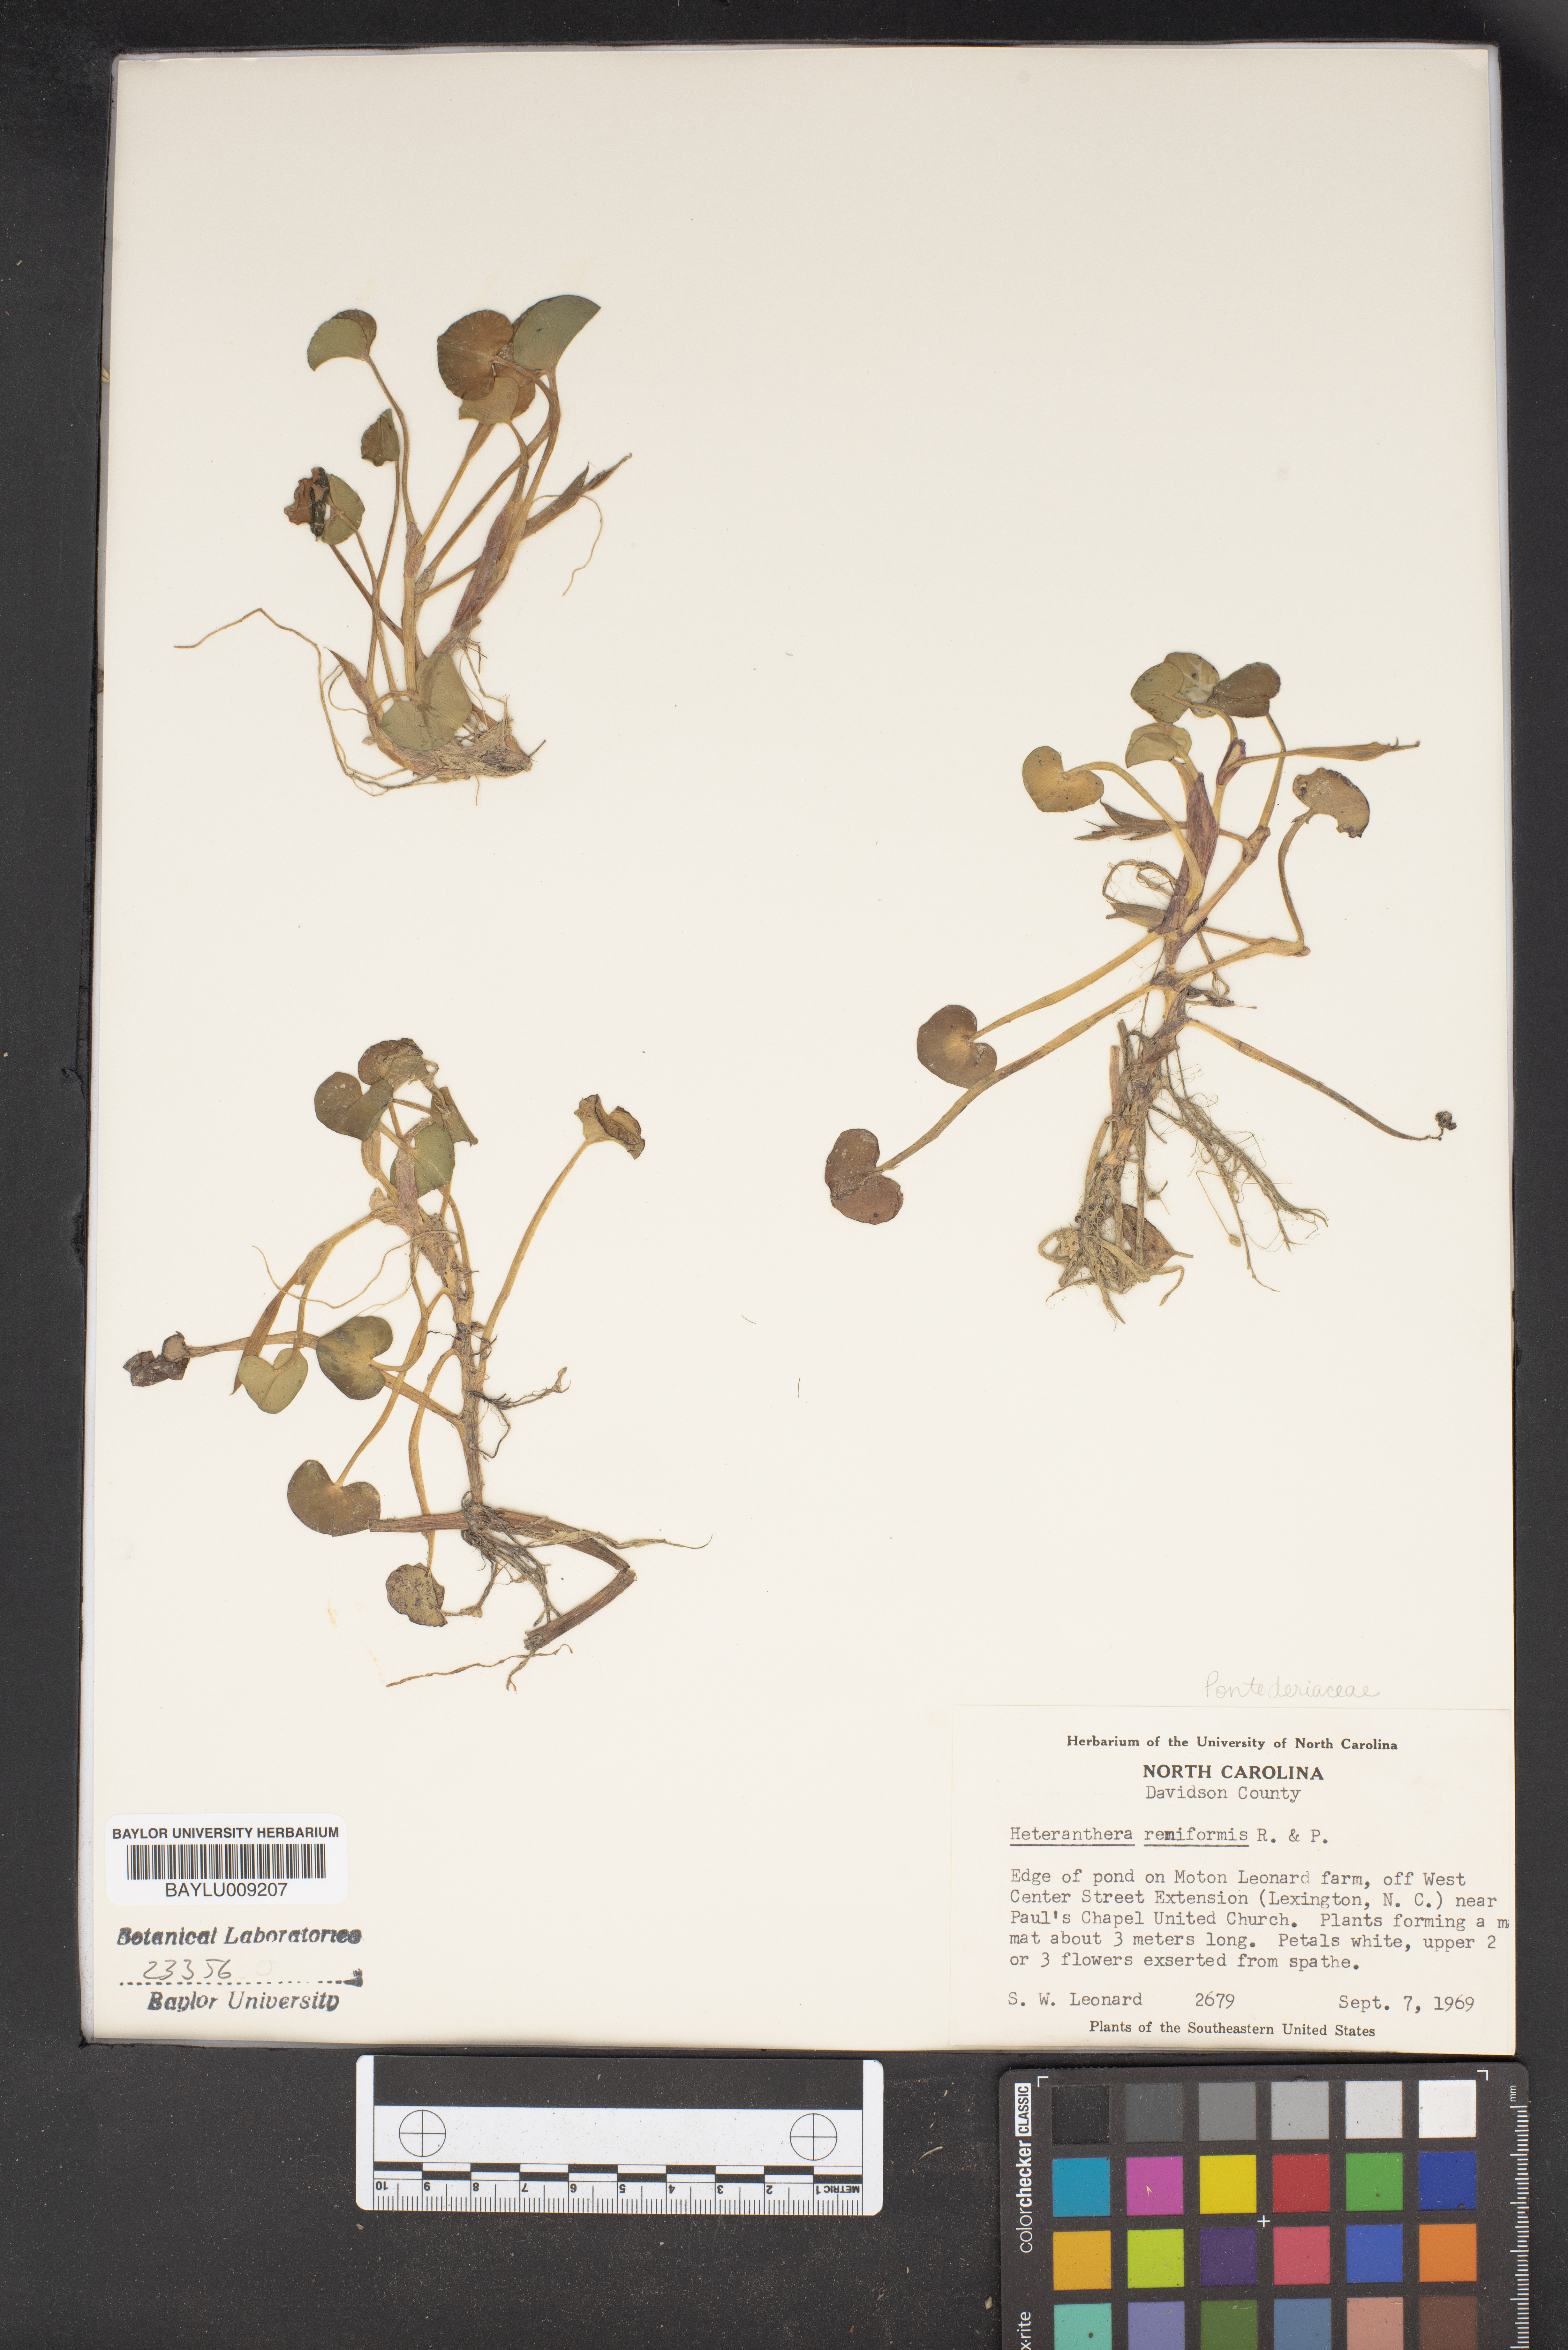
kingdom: Plantae
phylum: Tracheophyta
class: Liliopsida
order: Commelinales
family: Pontederiaceae
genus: Heteranthera
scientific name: Heteranthera reniformis
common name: Kidneyleaf mudplantain
